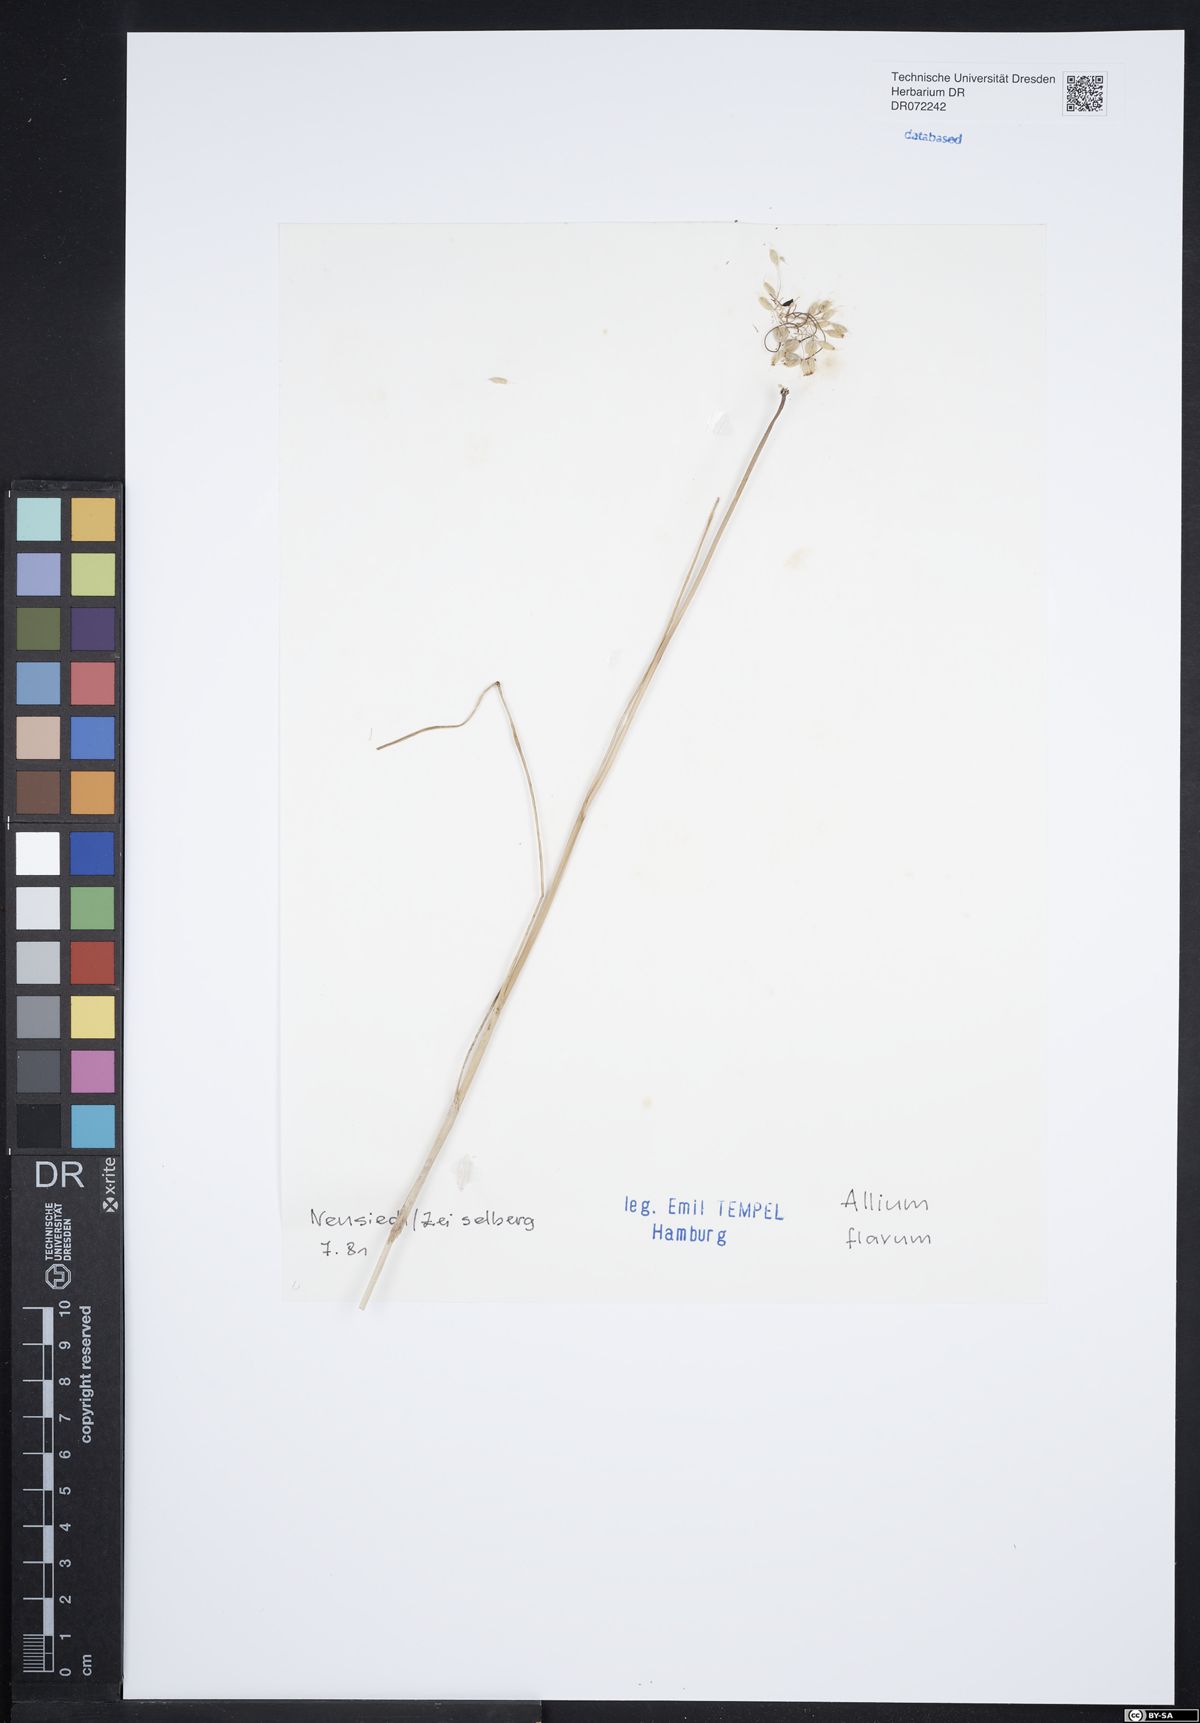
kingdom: Plantae
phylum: Tracheophyta
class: Liliopsida
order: Asparagales
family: Amaryllidaceae
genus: Allium
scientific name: Allium flavum
